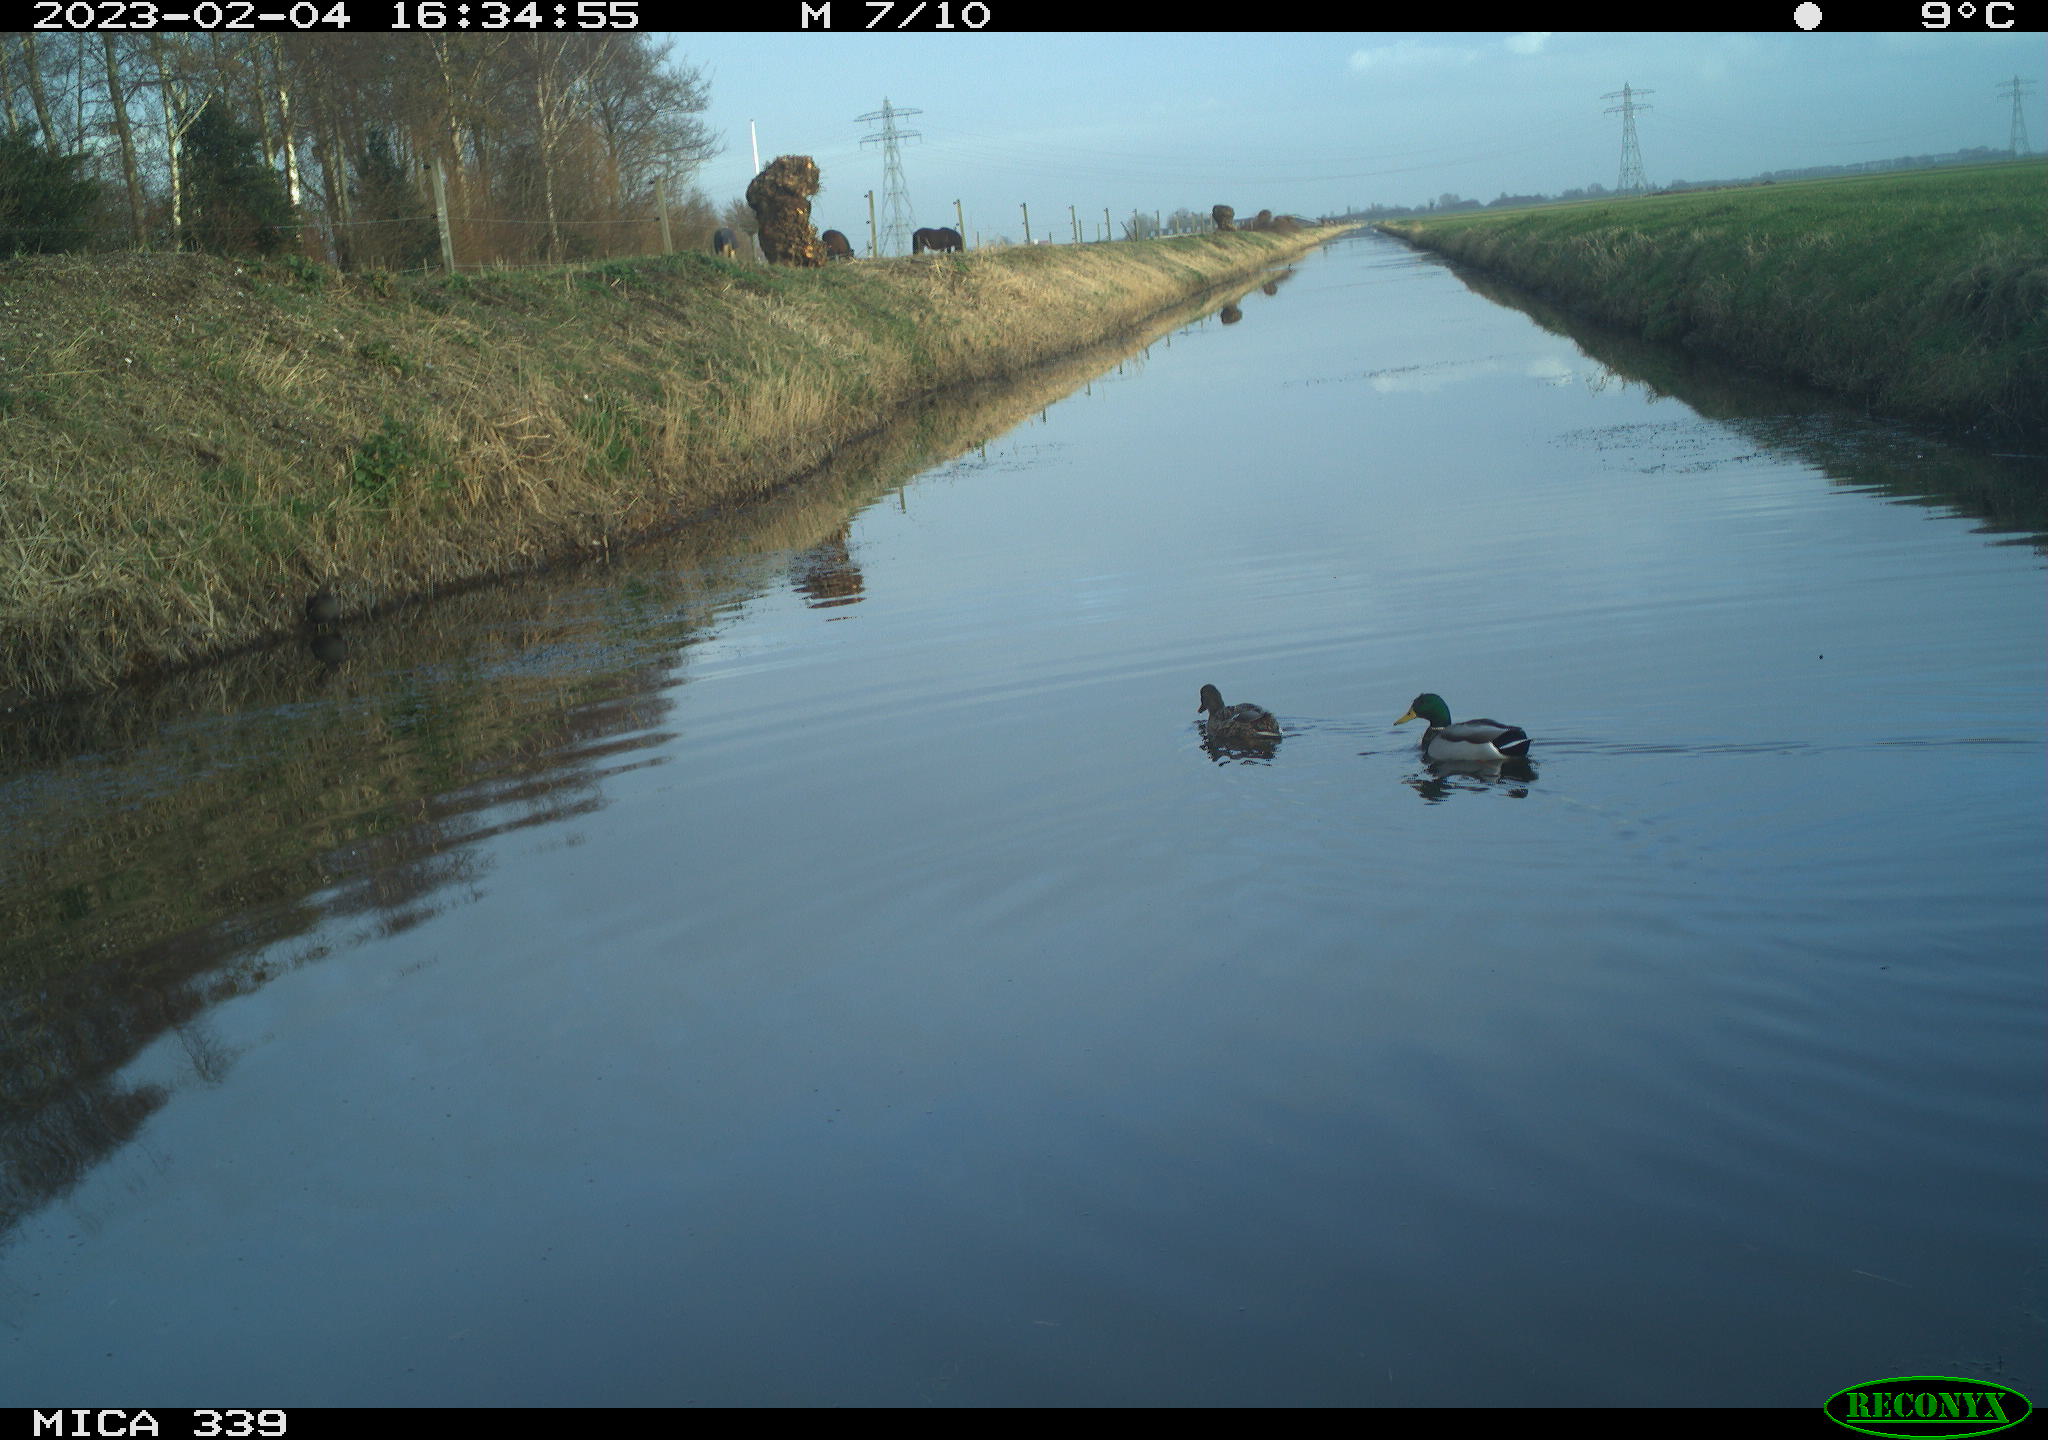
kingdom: Animalia
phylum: Chordata
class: Aves
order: Anseriformes
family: Anatidae
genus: Anas
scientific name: Anas
